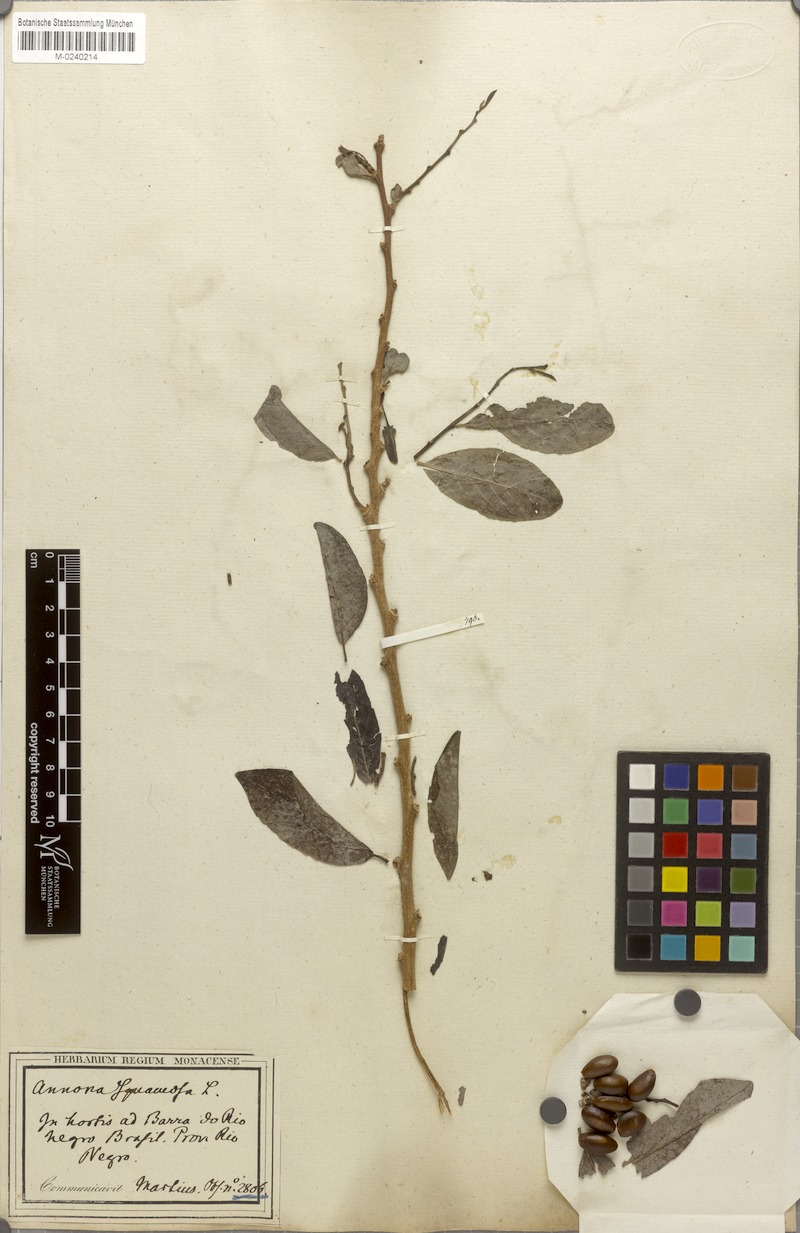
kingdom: Plantae
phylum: Tracheophyta
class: Magnoliopsida
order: Magnoliales
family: Annonaceae
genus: Annona
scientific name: Annona squamosa
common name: Custard-apple
